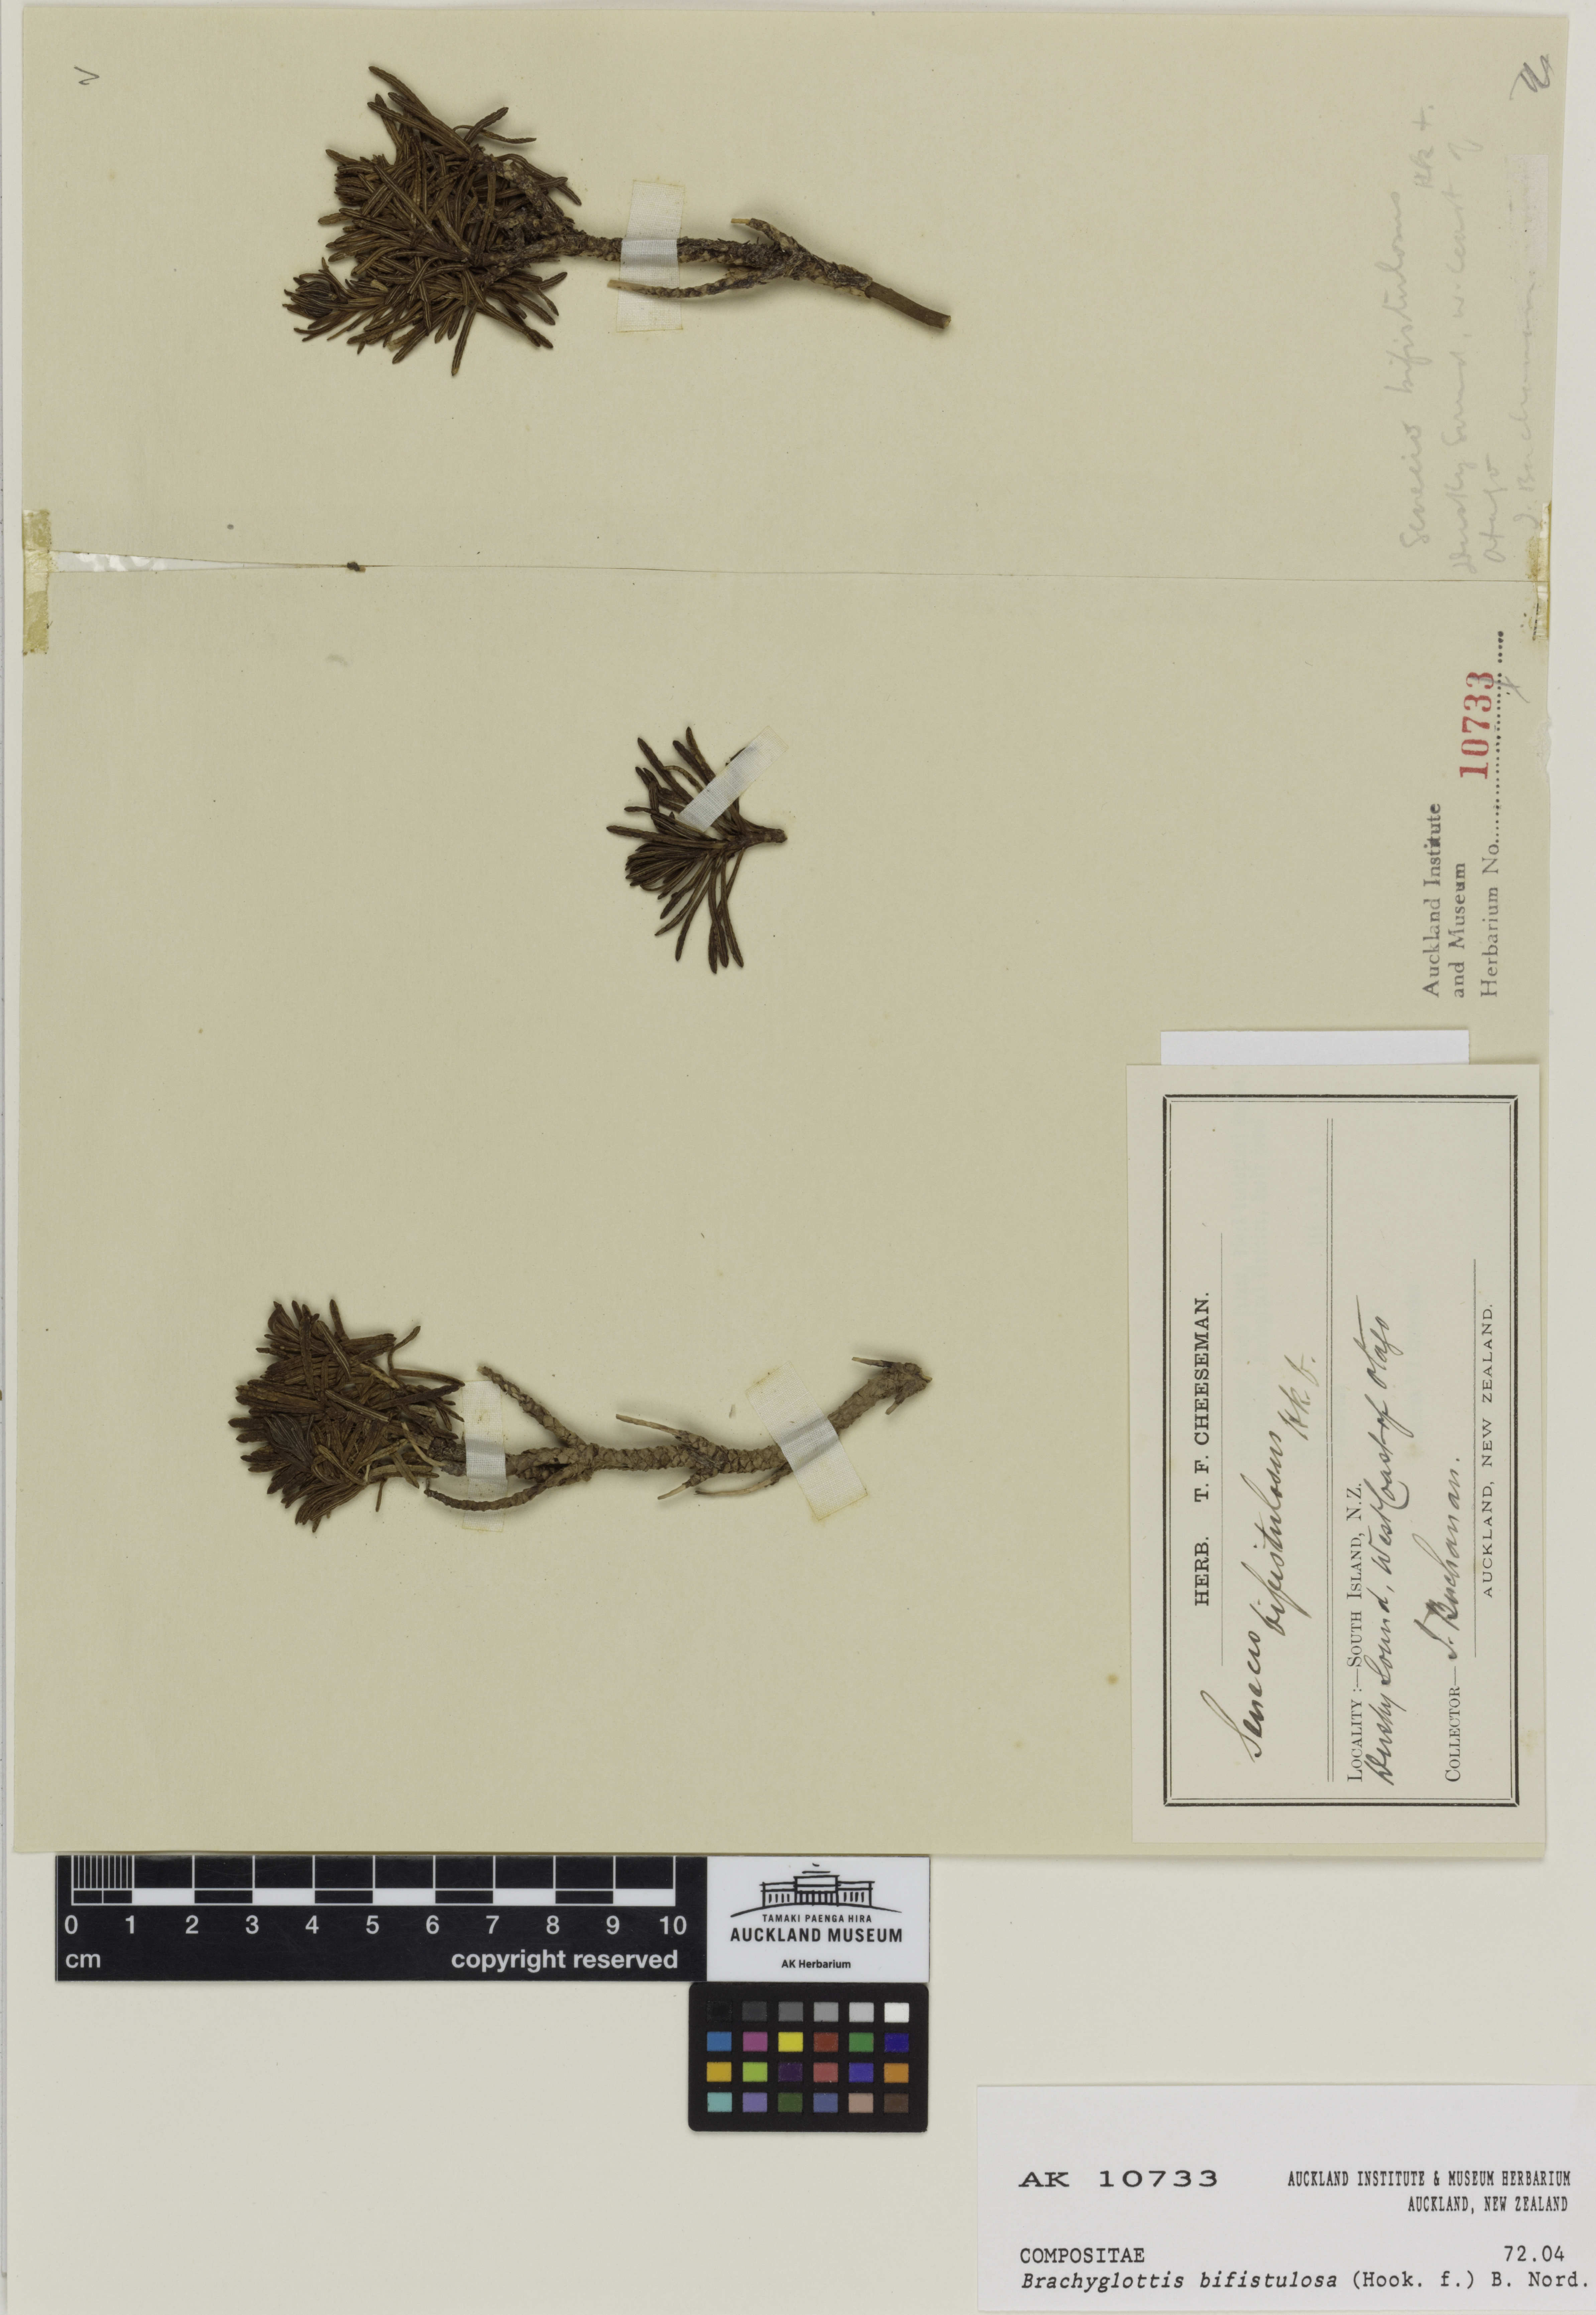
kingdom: Plantae
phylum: Tracheophyta
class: Magnoliopsida
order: Asterales
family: Asteraceae
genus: Brachyglottis
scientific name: Brachyglottis bifistulosa
